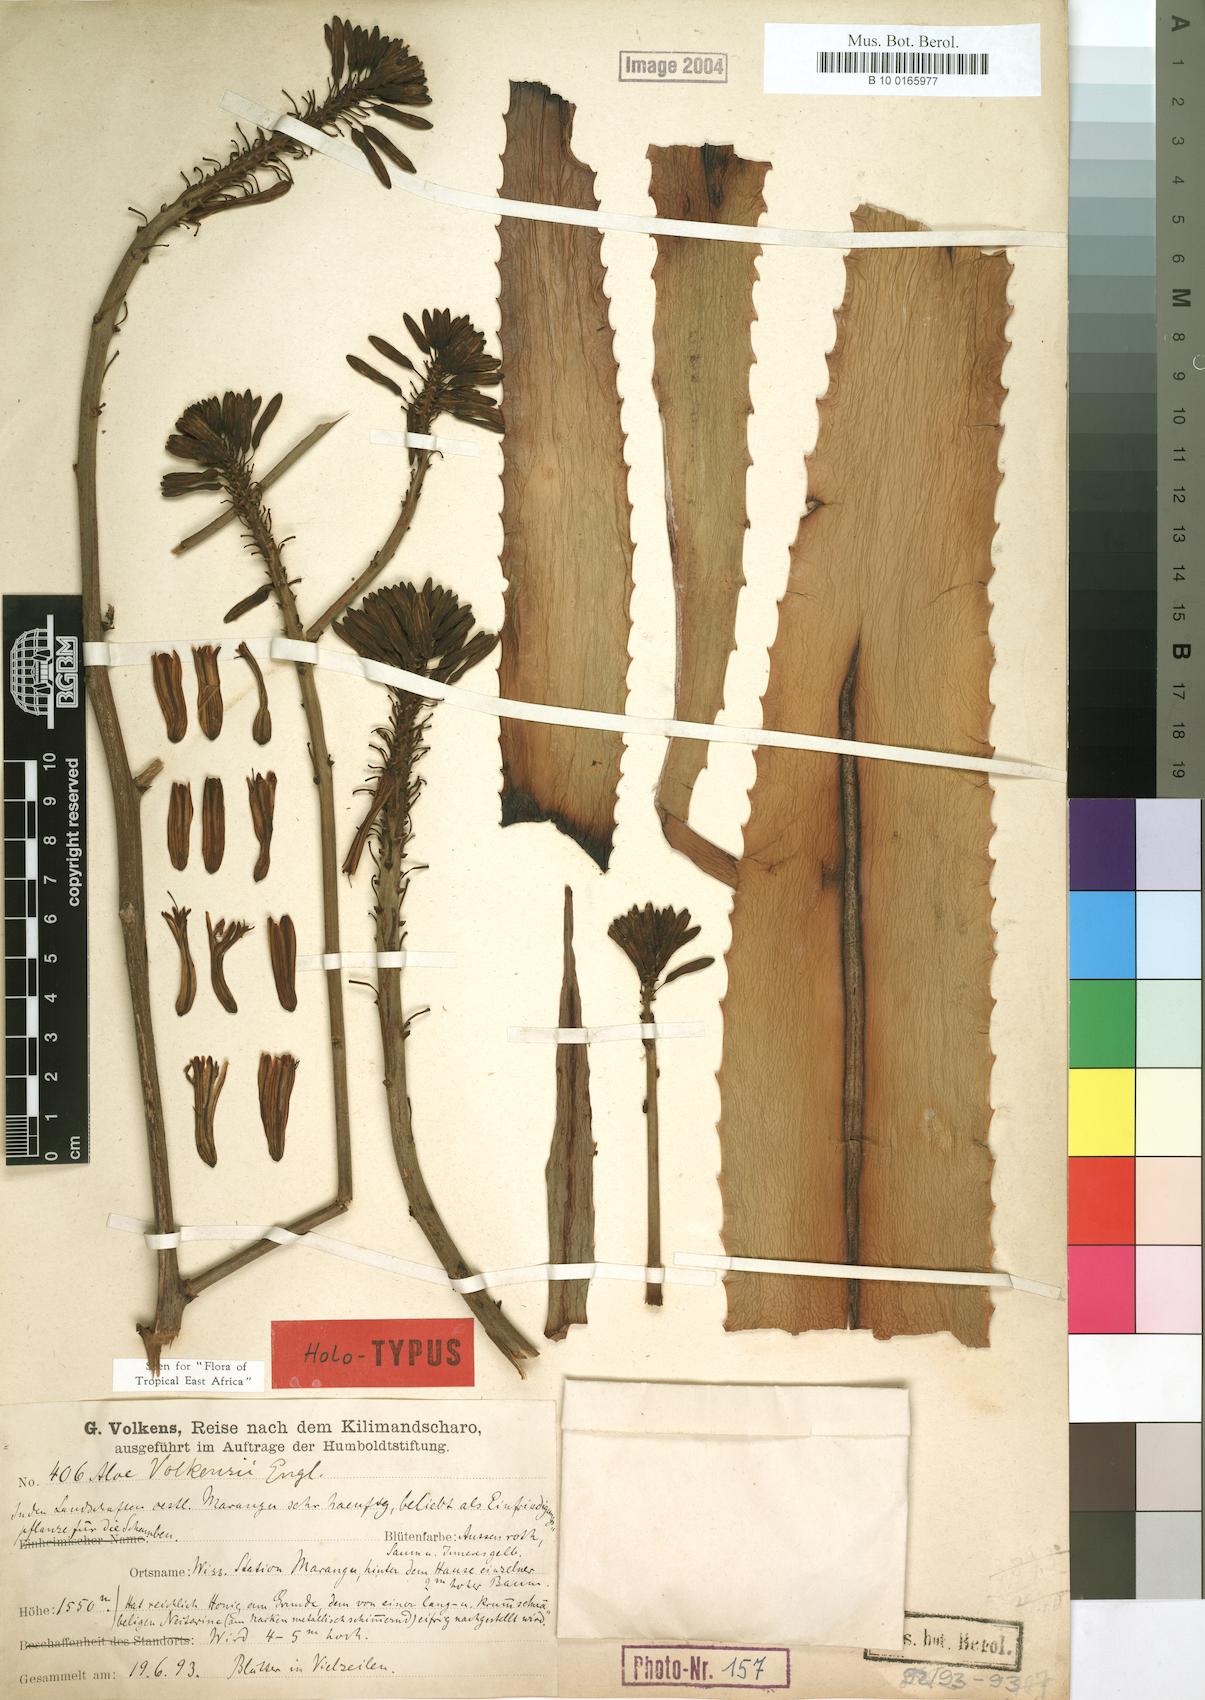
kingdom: Plantae
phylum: Tracheophyta
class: Liliopsida
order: Asparagales
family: Asphodelaceae
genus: Aloe
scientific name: Aloe volkensii
